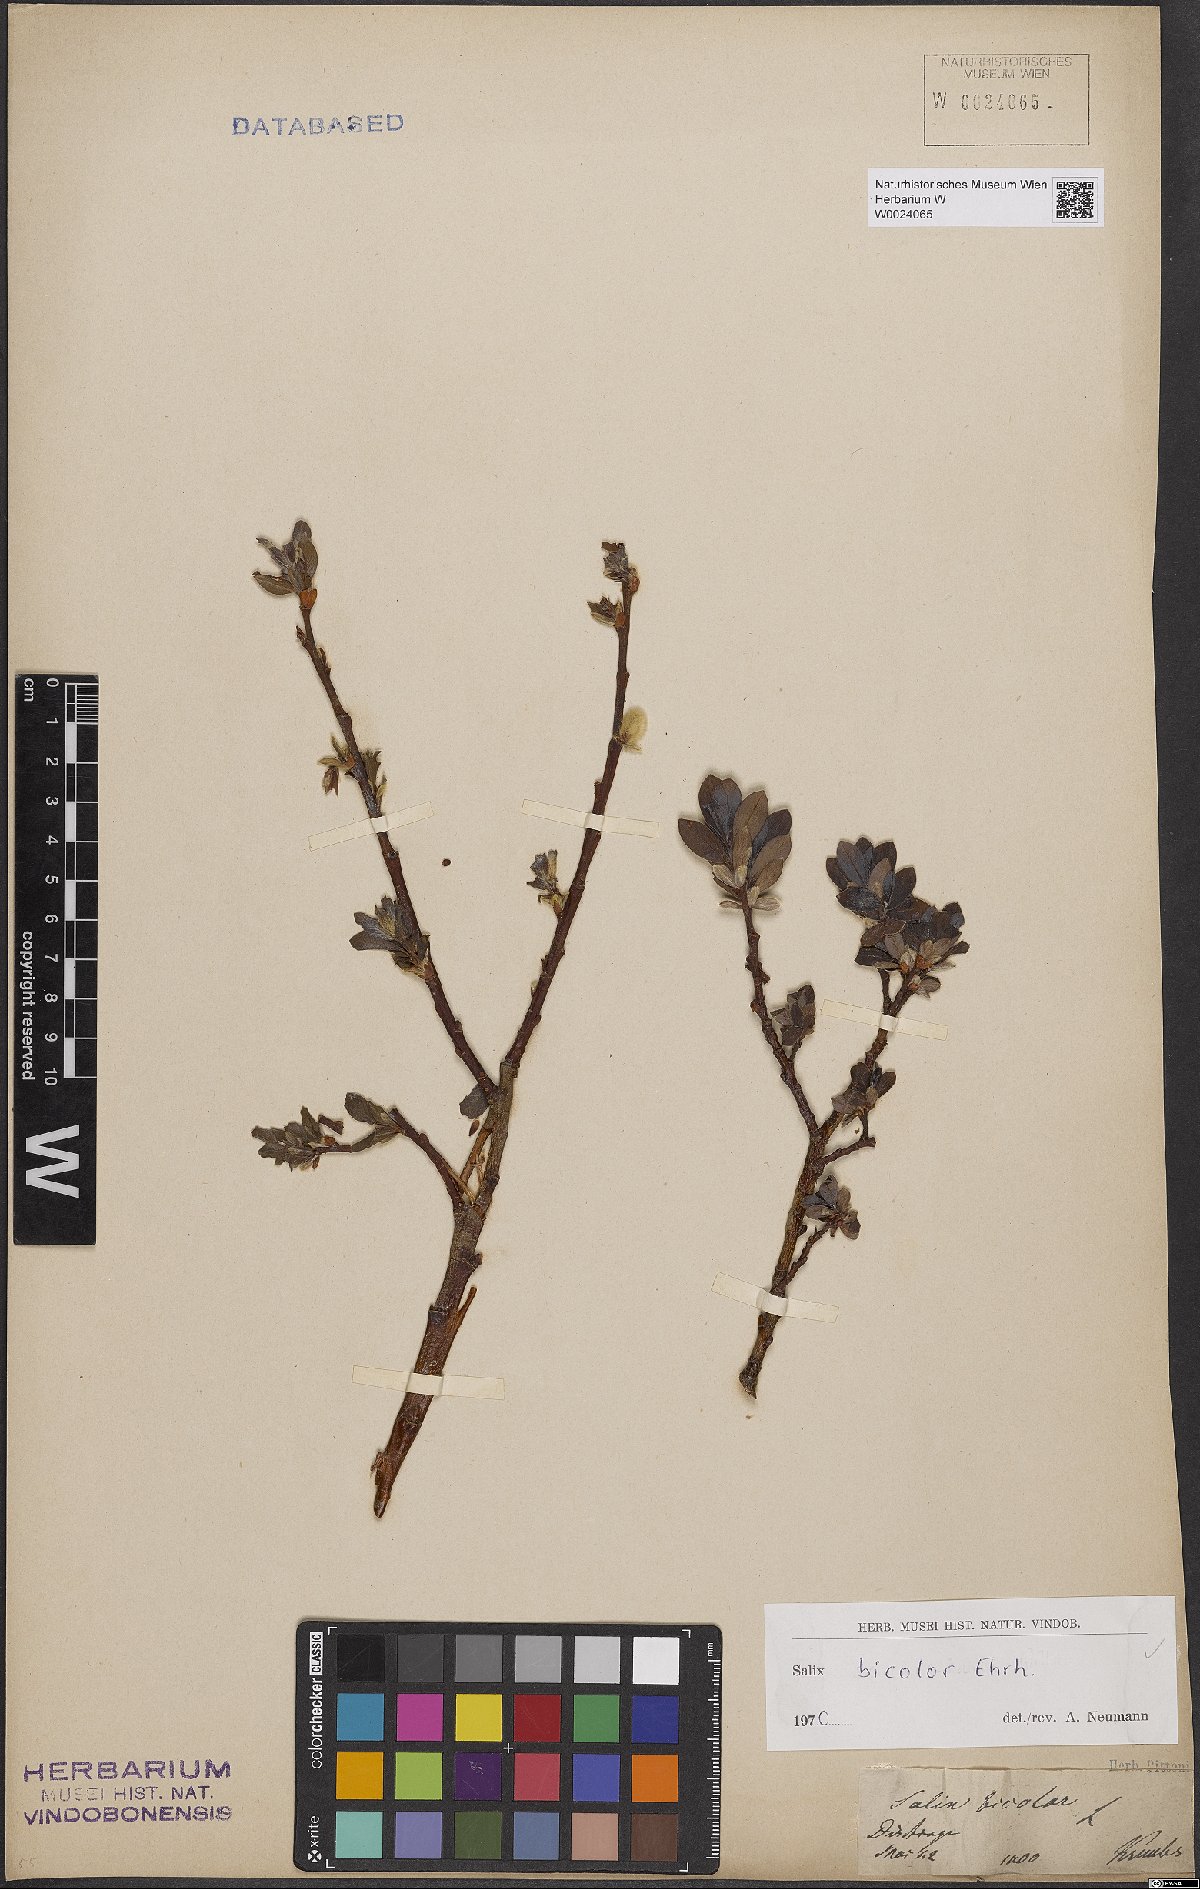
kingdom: Plantae
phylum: Tracheophyta
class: Magnoliopsida
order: Malpighiales
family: Salicaceae
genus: Salix
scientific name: Salix bicolor
